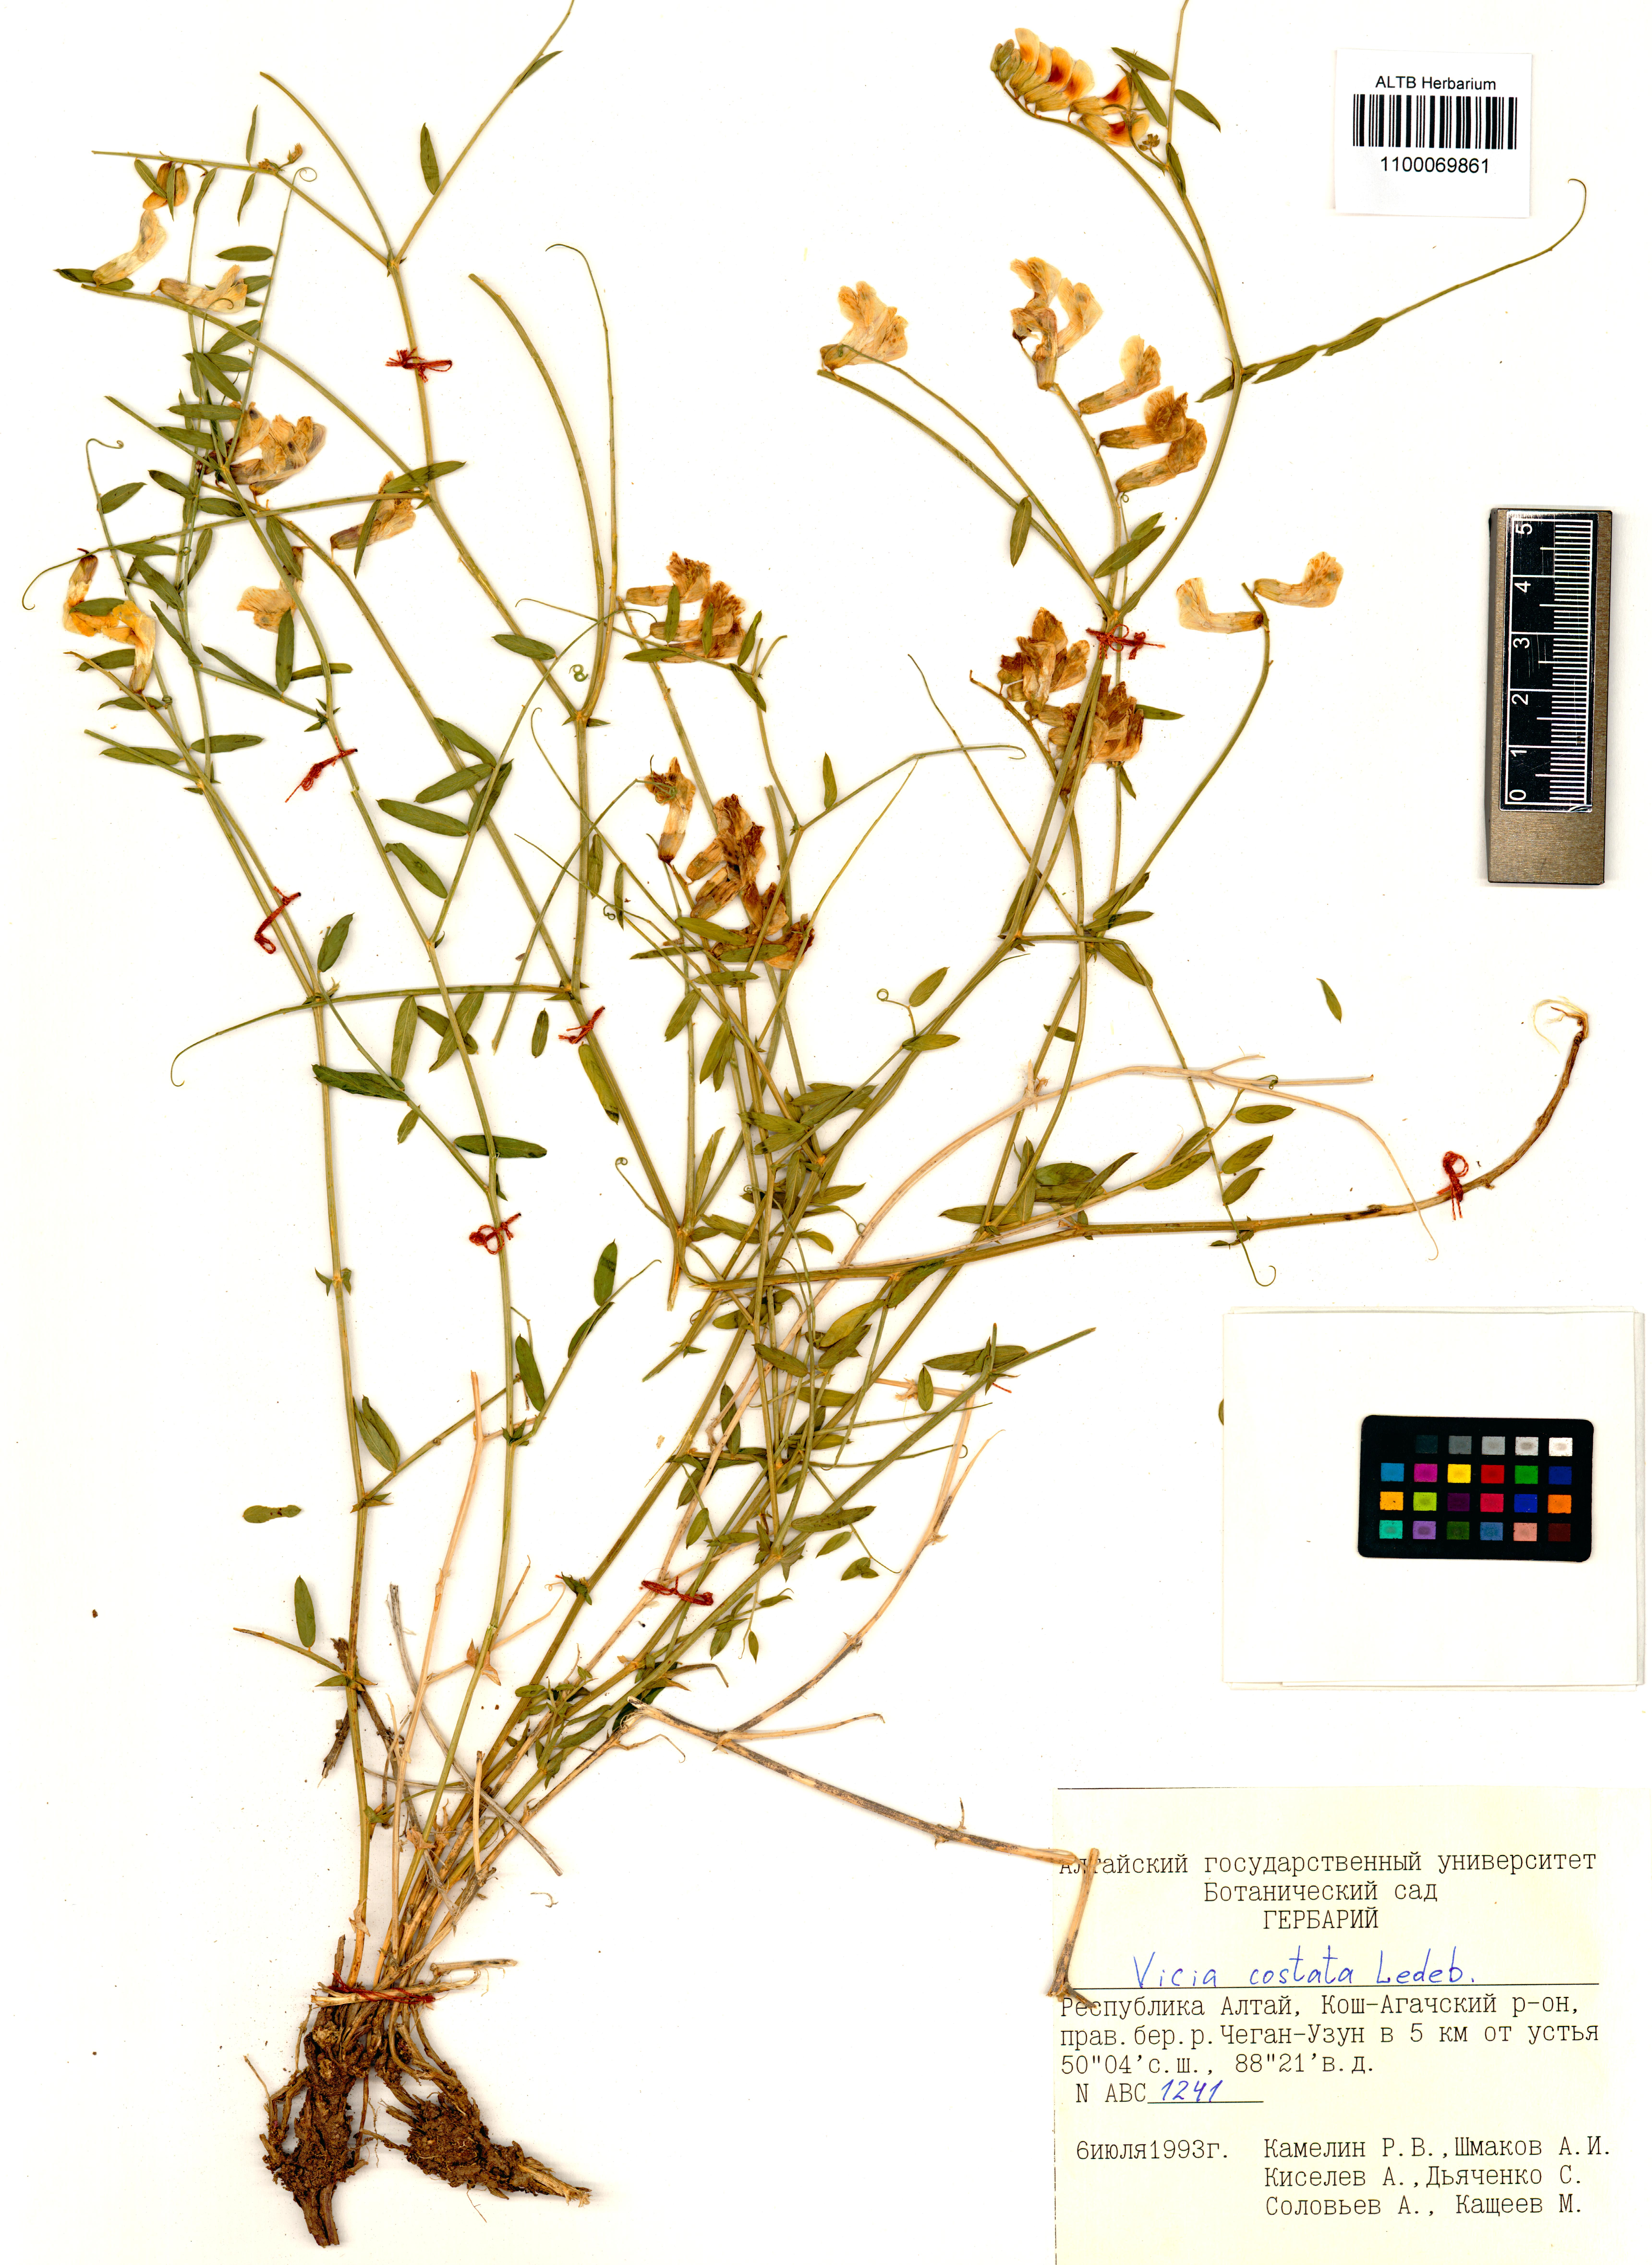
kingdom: Plantae
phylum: Tracheophyta
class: Magnoliopsida
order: Fabales
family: Fabaceae
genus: Vicia
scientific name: Vicia costata
